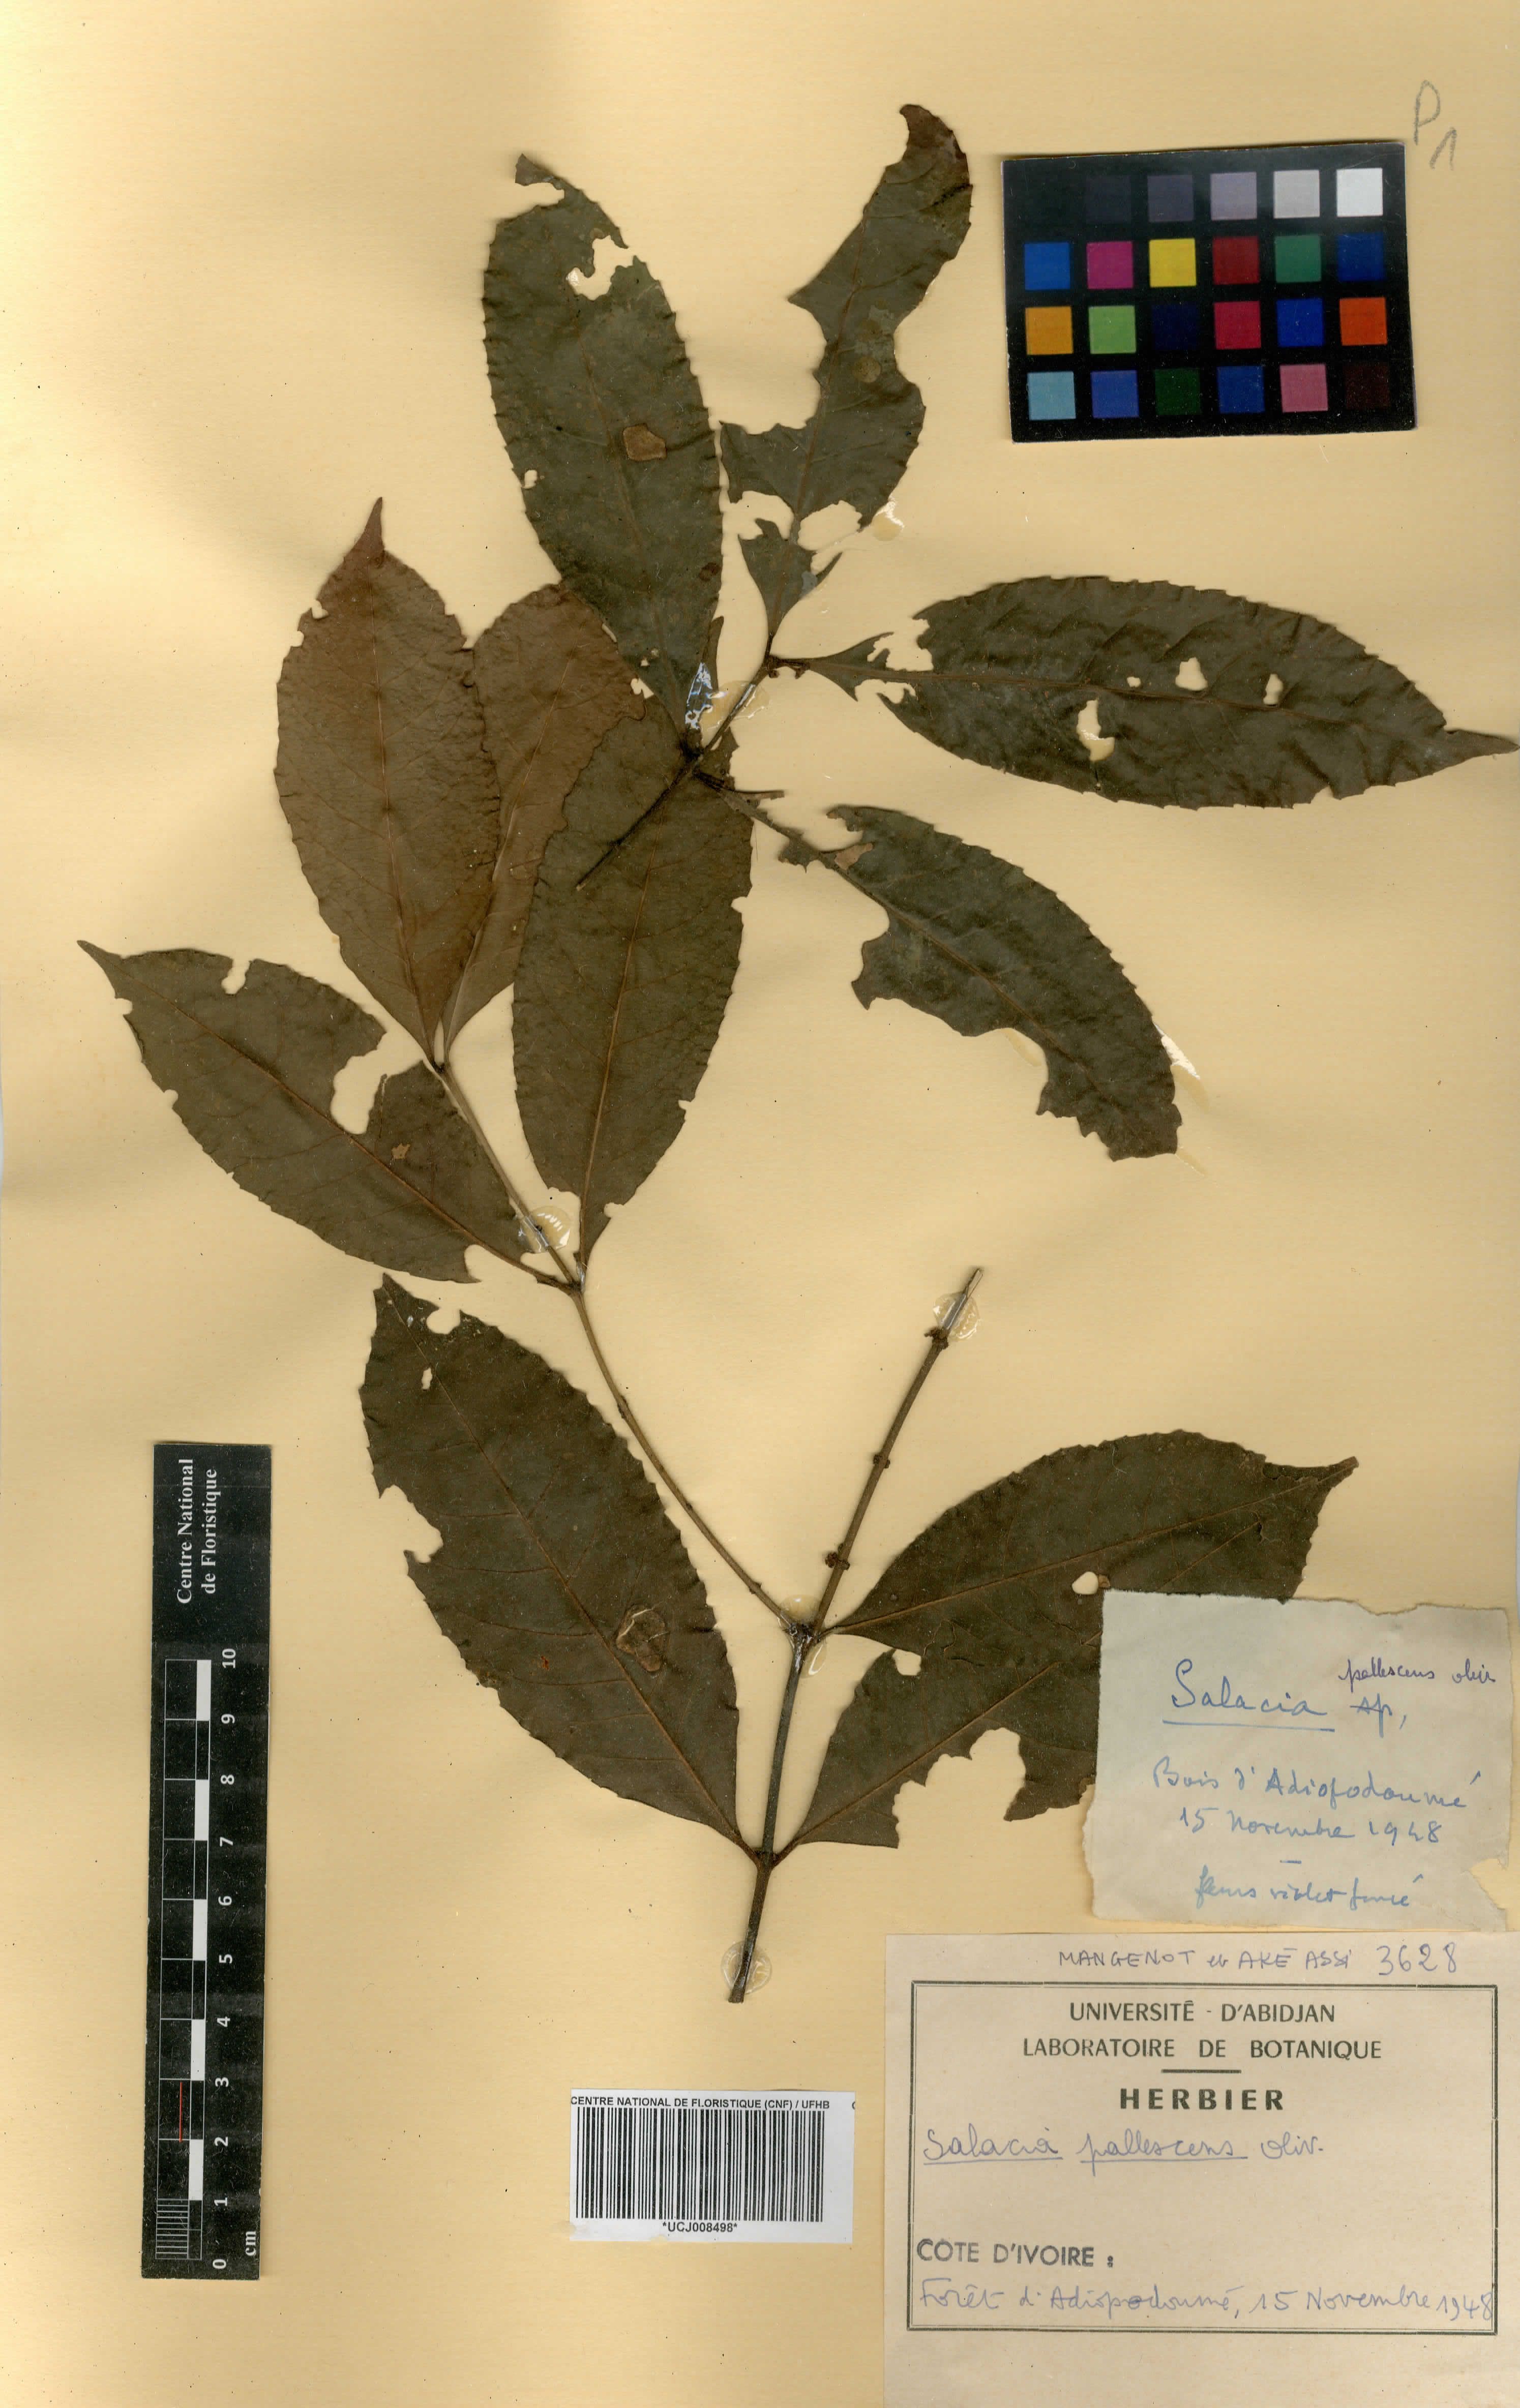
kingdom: Plantae
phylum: Tracheophyta
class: Magnoliopsida
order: Celastrales
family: Celastraceae
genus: Salacia
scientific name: Salacia pallescens
